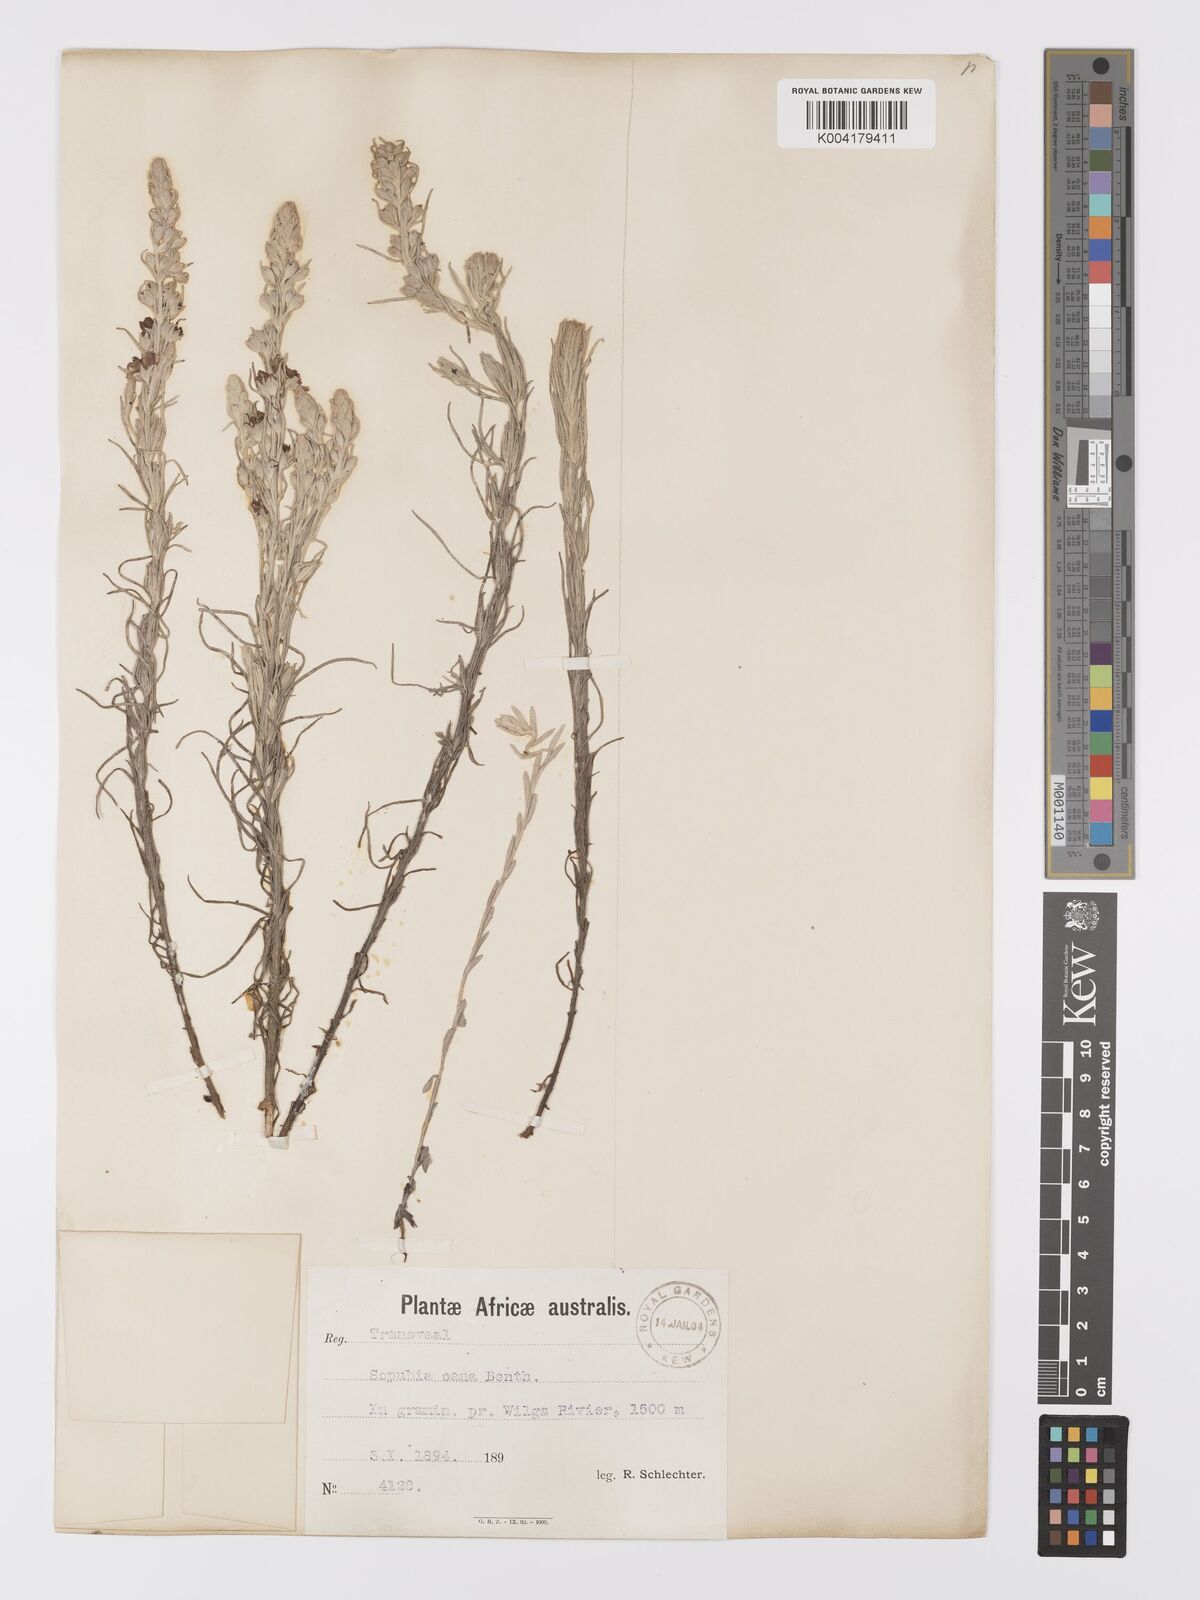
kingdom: Plantae
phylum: Tracheophyta
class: Magnoliopsida
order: Lamiales
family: Orobanchaceae
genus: Sopubia
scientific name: Sopubia cana
